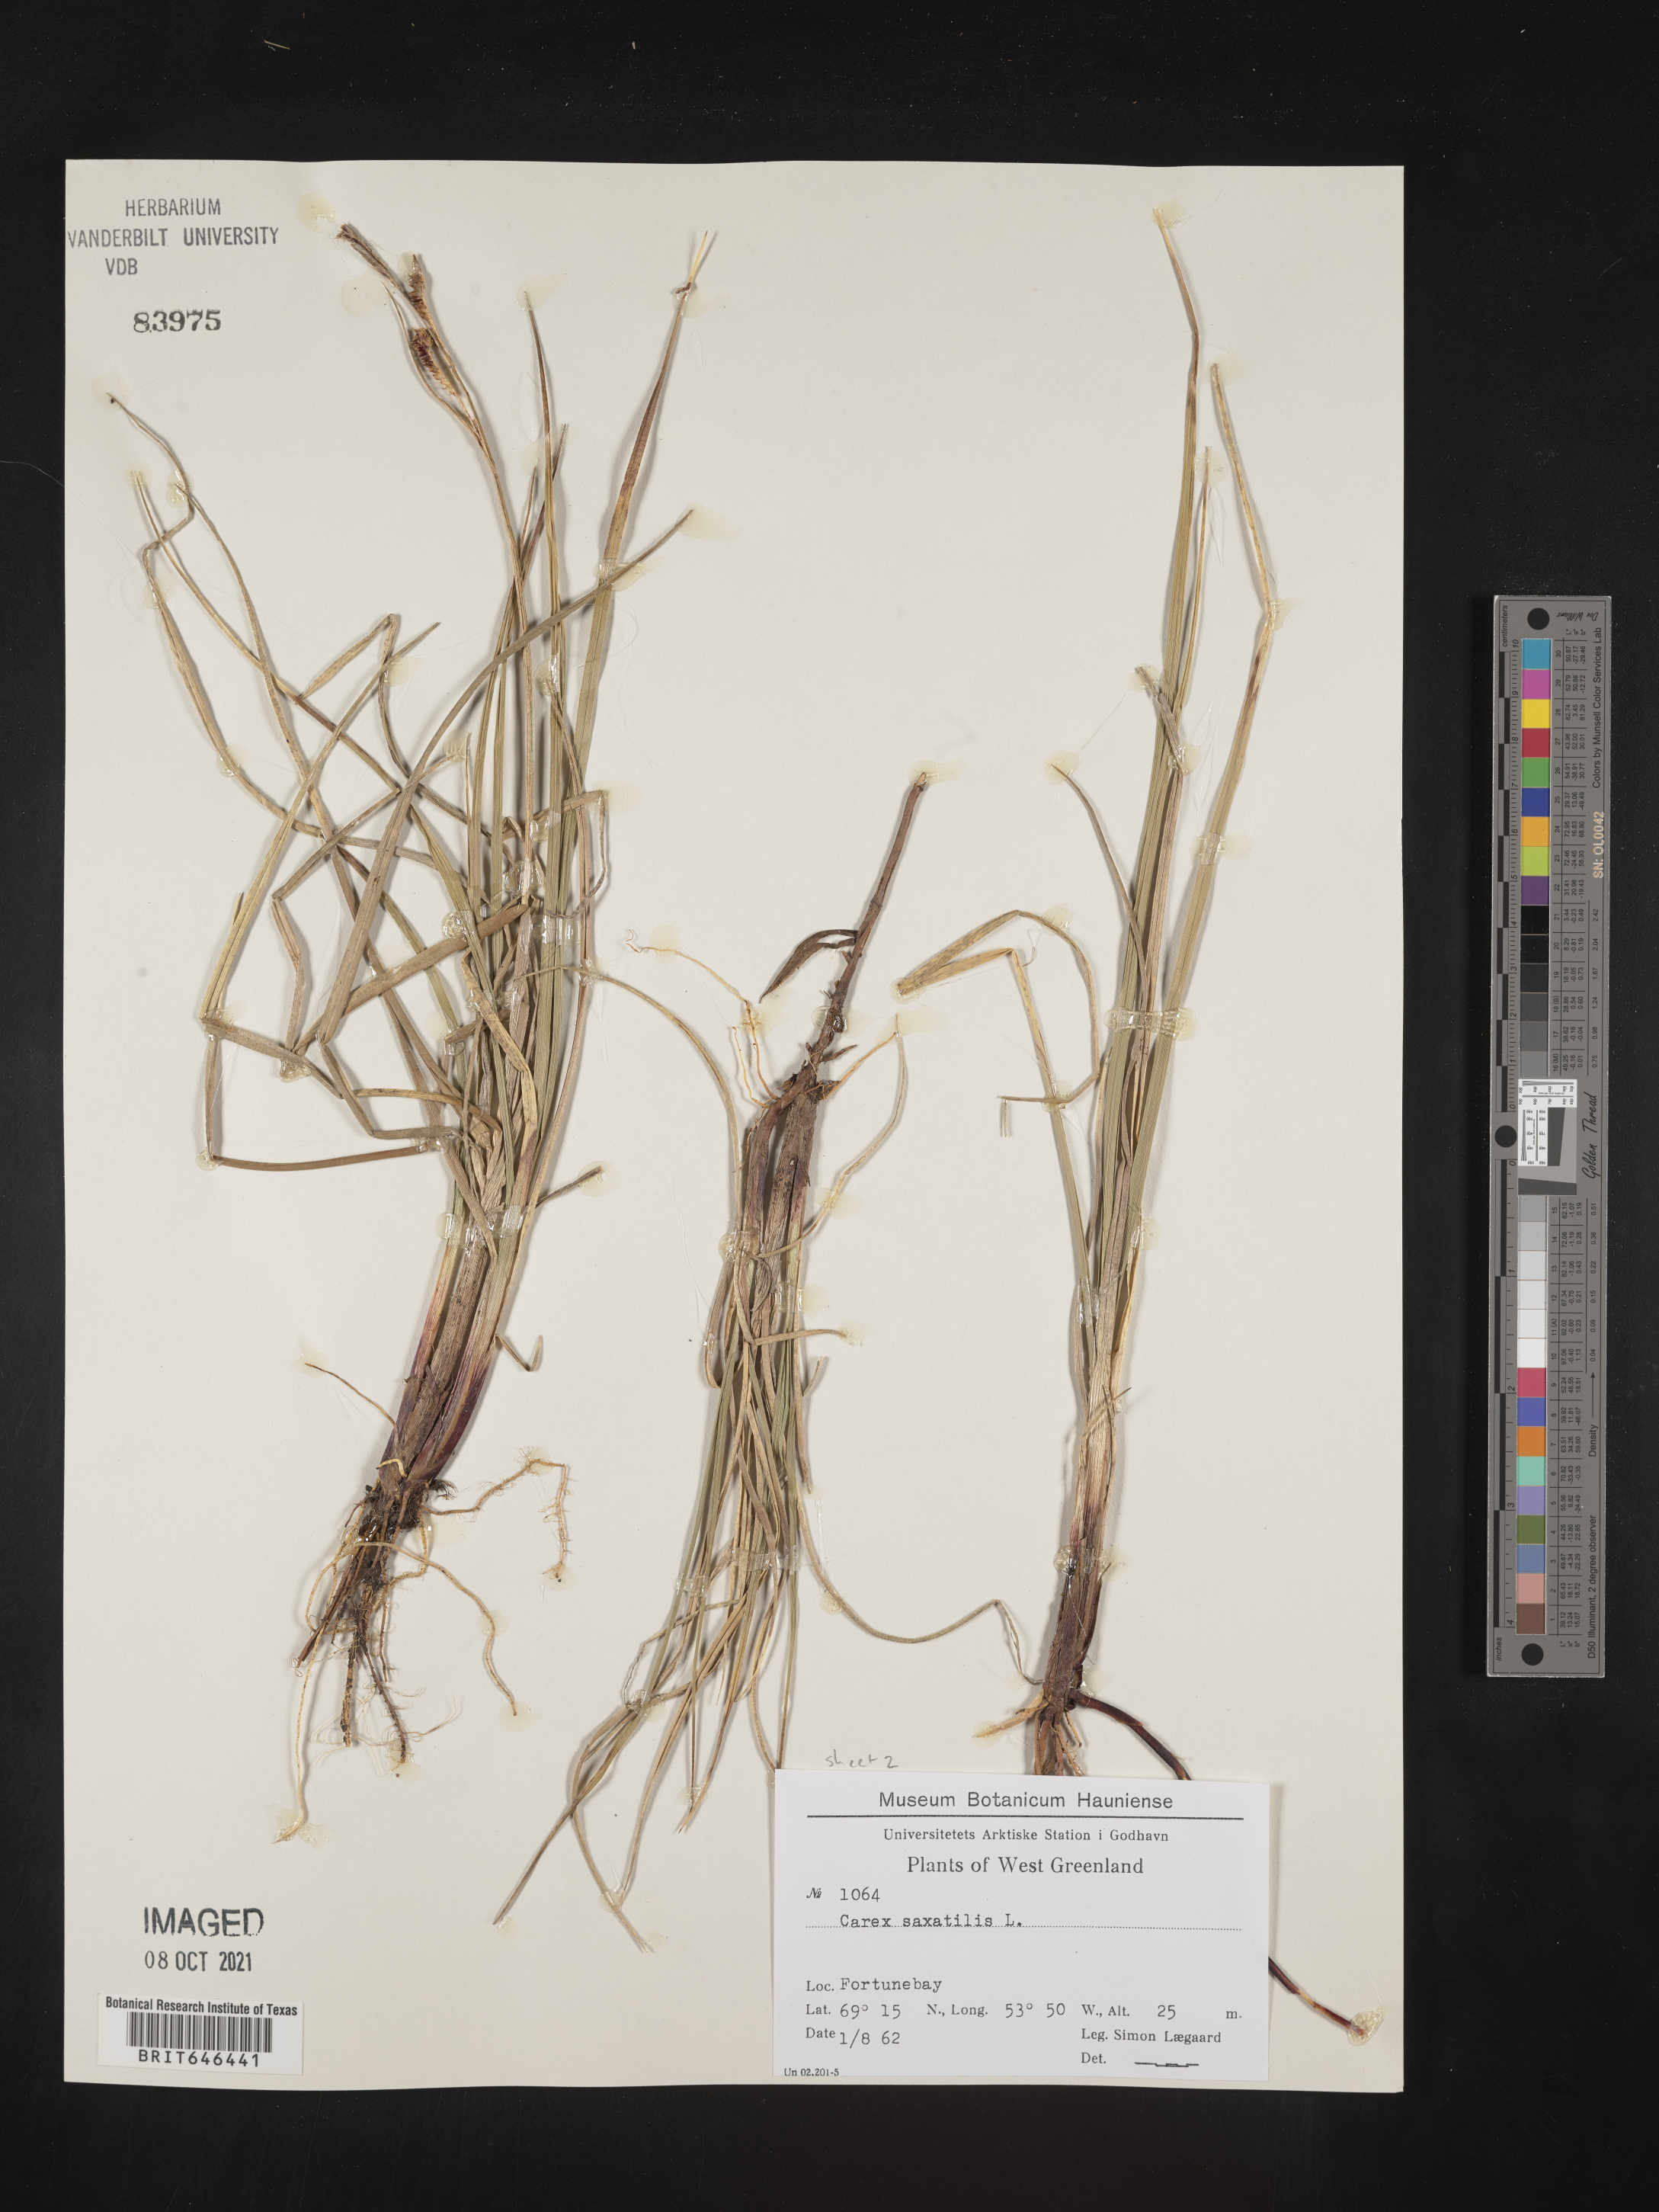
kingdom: Plantae
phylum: Tracheophyta
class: Liliopsida
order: Poales
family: Cyperaceae
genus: Carex
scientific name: Carex saxatilis
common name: Russet sedge
